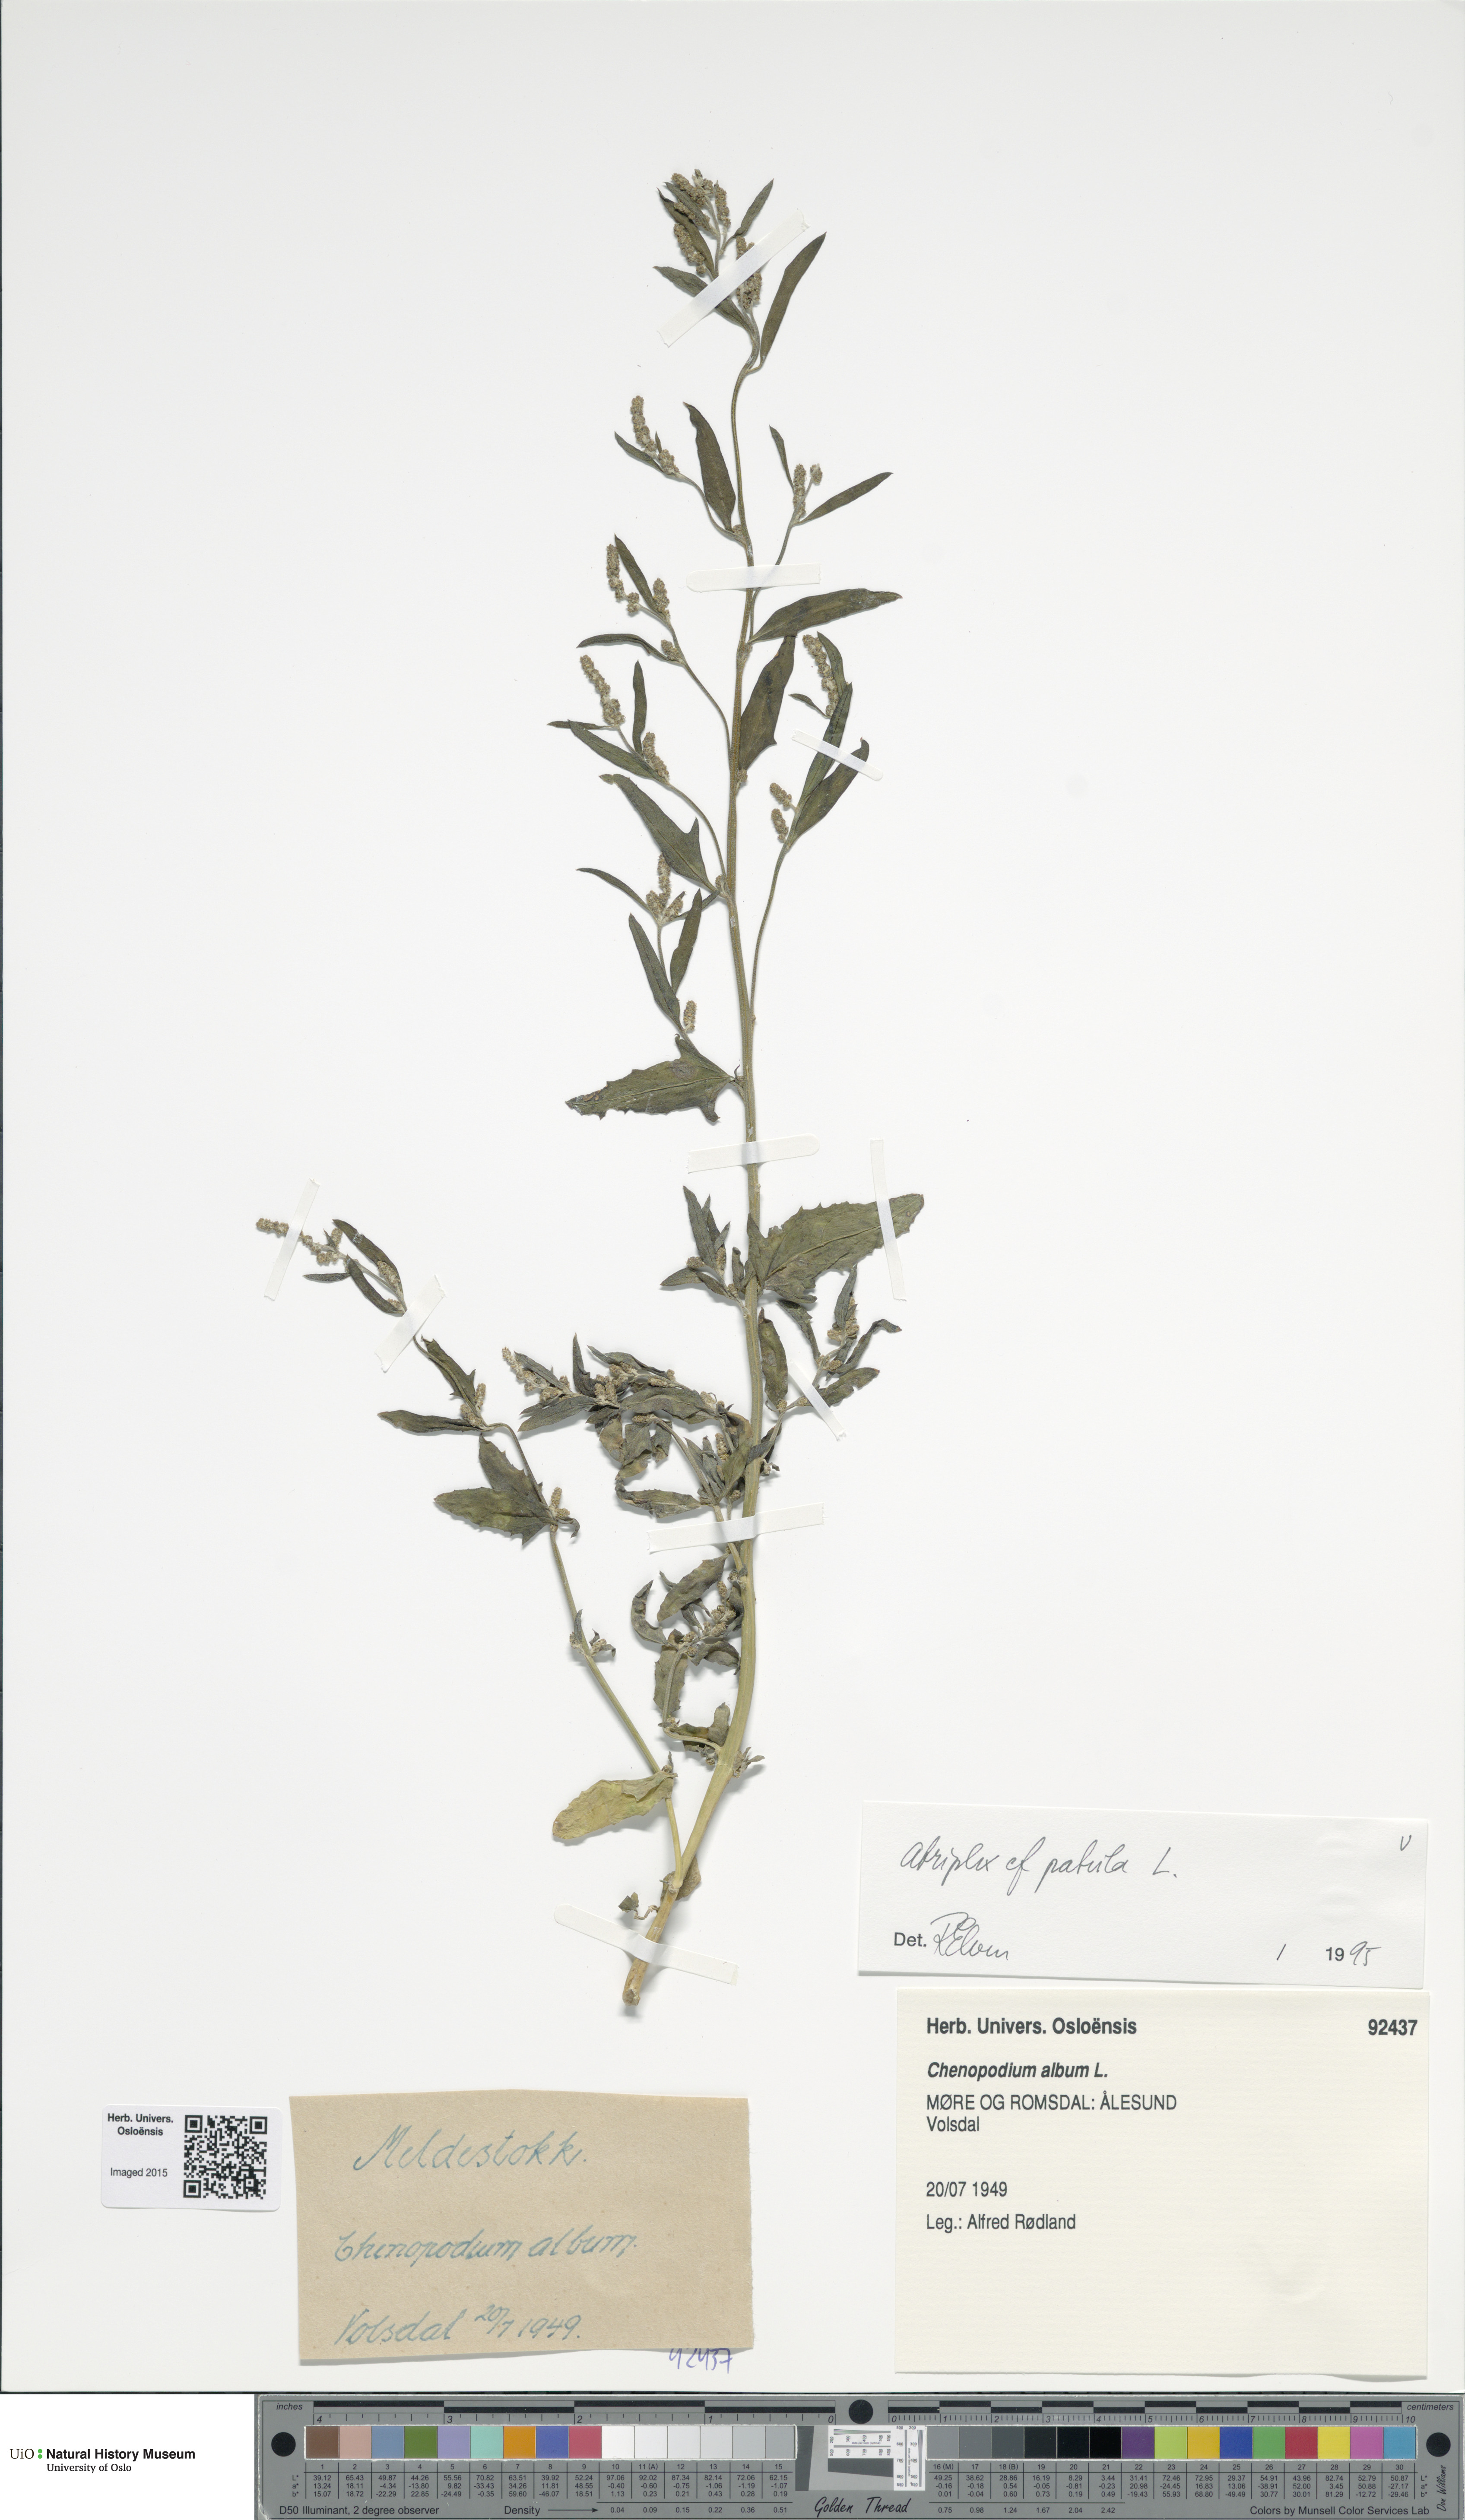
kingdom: Plantae
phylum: Tracheophyta
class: Magnoliopsida
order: Caryophyllales
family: Amaranthaceae
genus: Atriplex
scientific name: Atriplex patula
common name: Common orache
